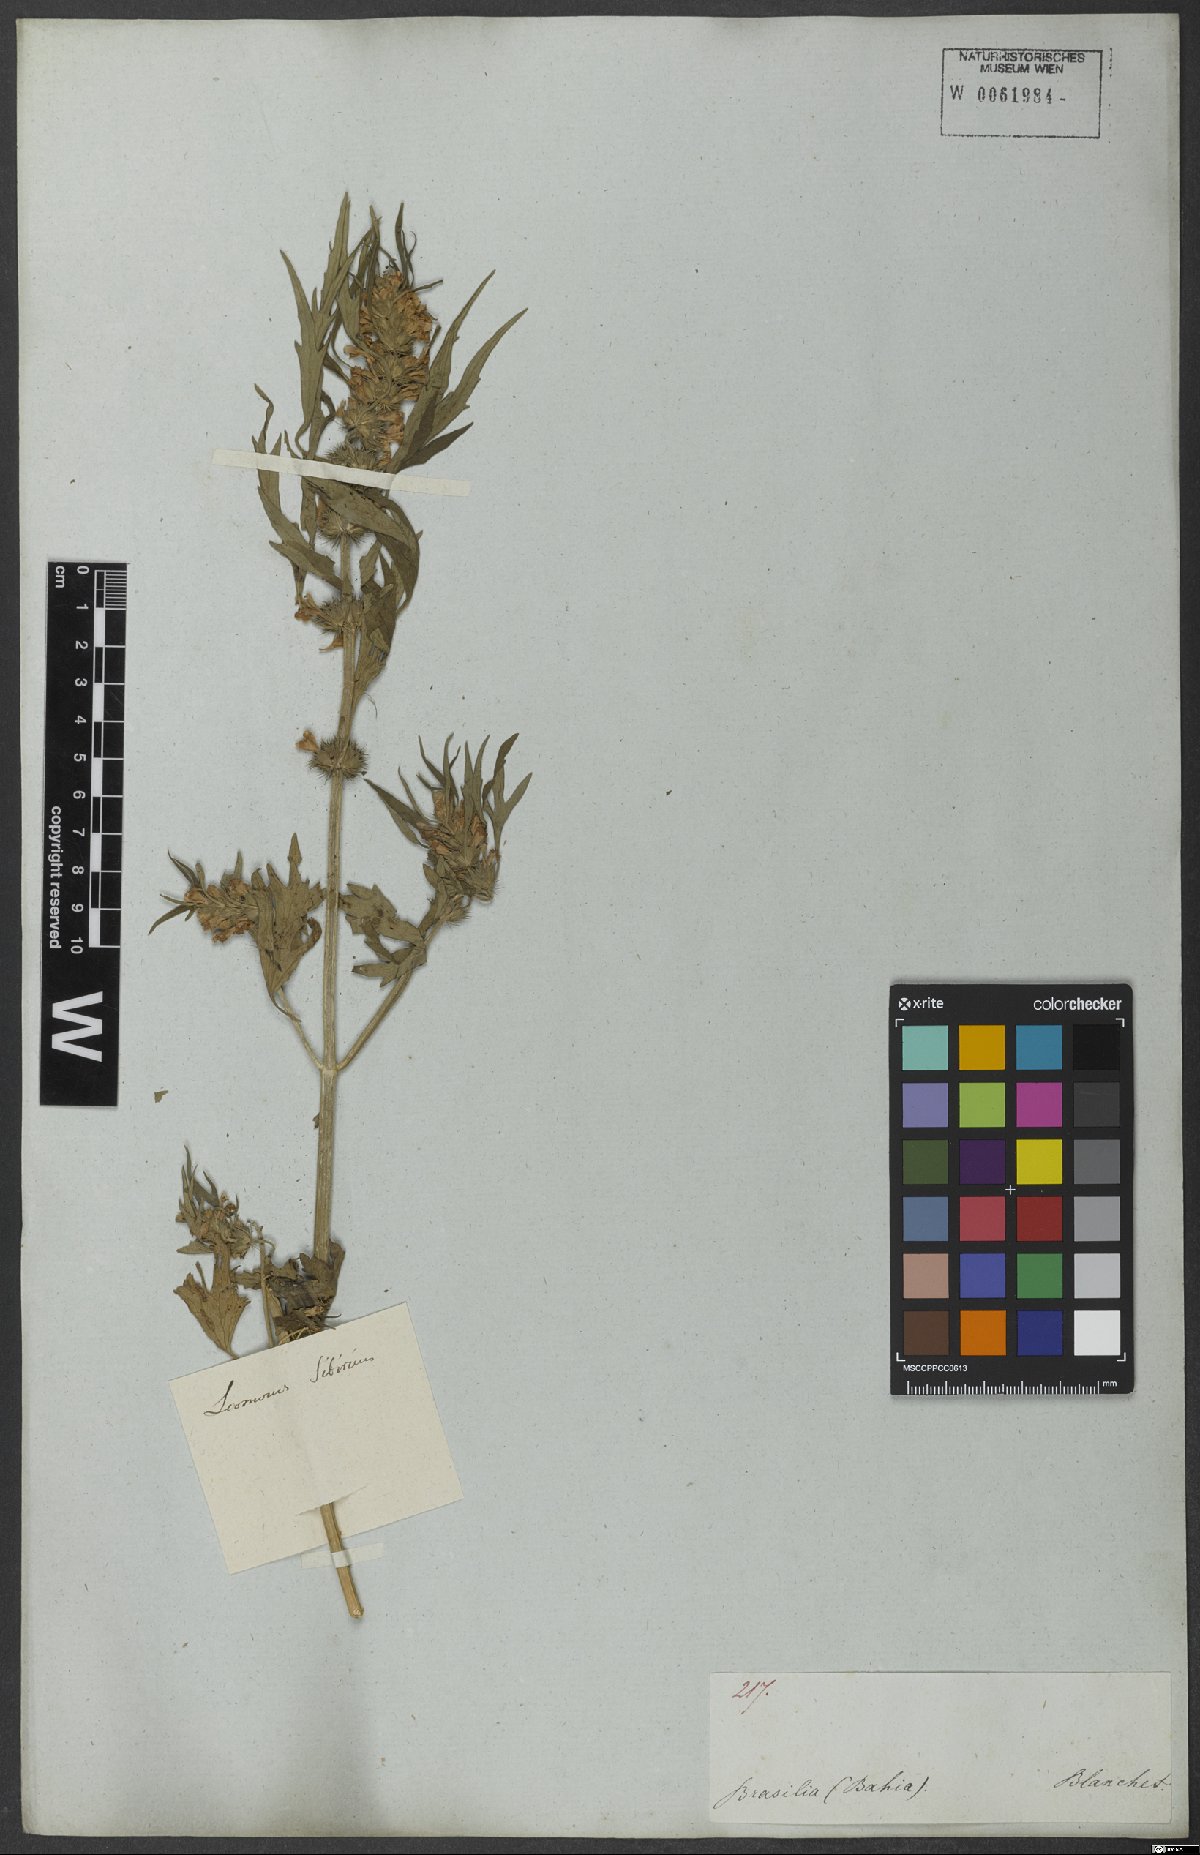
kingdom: Plantae
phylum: Tracheophyta
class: Magnoliopsida
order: Lamiales
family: Lamiaceae
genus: Leonurus
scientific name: Leonurus sibiricus
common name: Honeyweed
